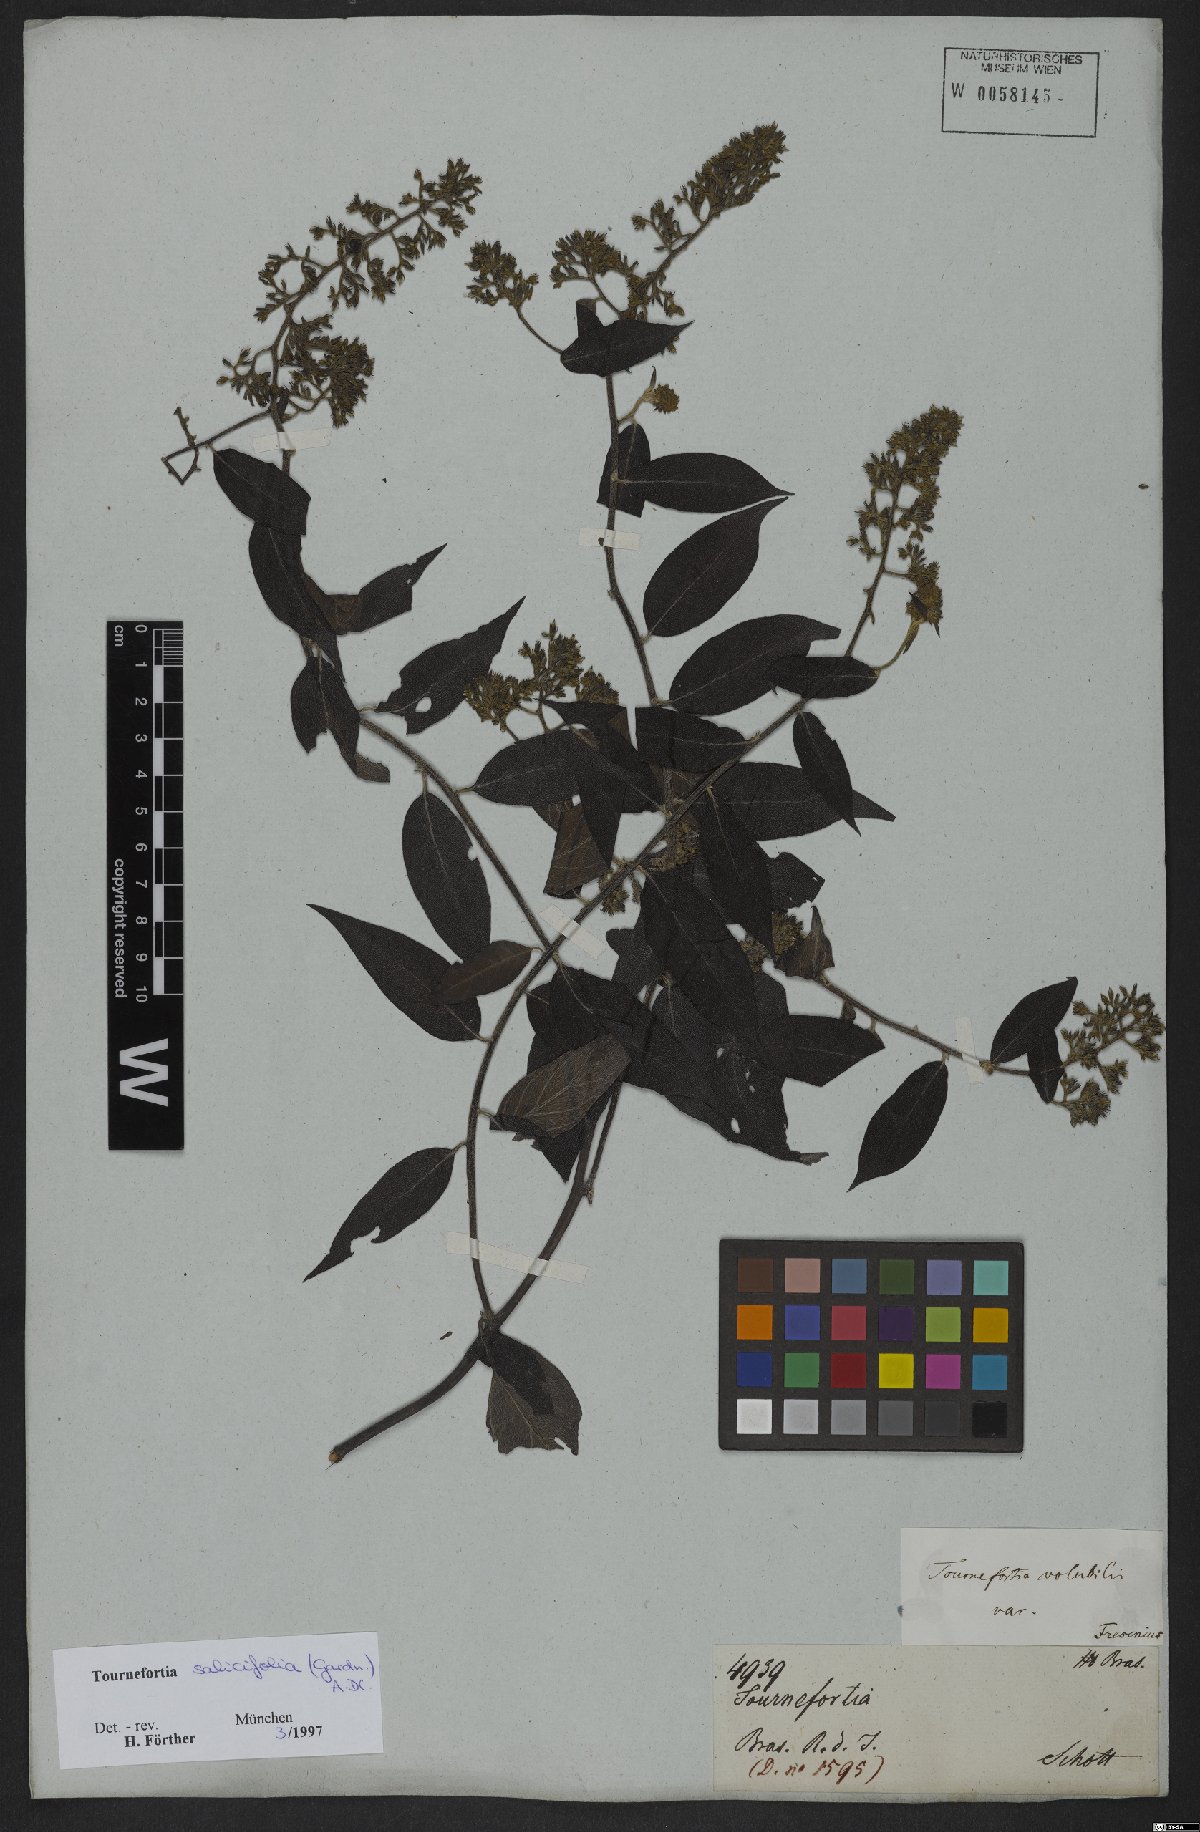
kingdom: Plantae
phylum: Tracheophyta
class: Magnoliopsida
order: Boraginales
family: Heliotropiaceae
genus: Myriopus
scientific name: Myriopus salicifolius
